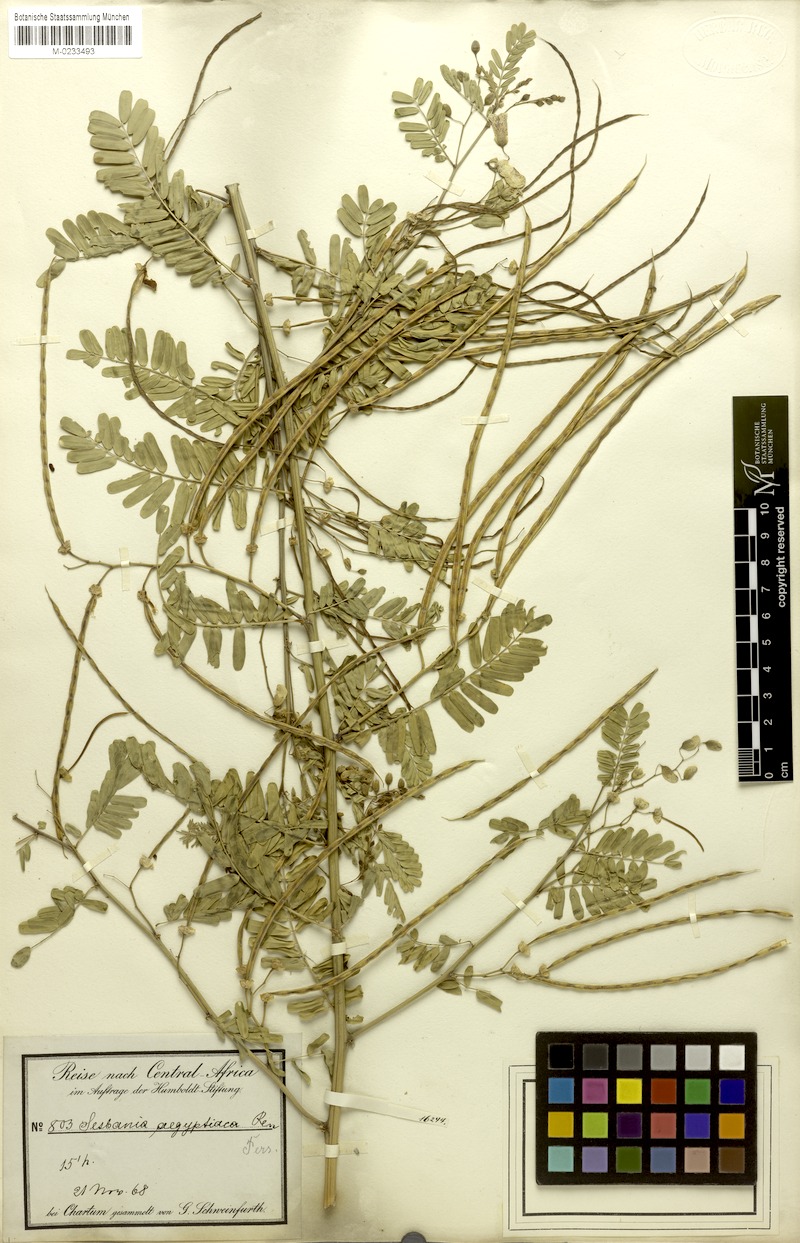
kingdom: Plantae
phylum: Tracheophyta
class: Magnoliopsida
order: Fabales
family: Fabaceae
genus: Sesbania
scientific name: Sesbania sesban
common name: Egyptian sesban
